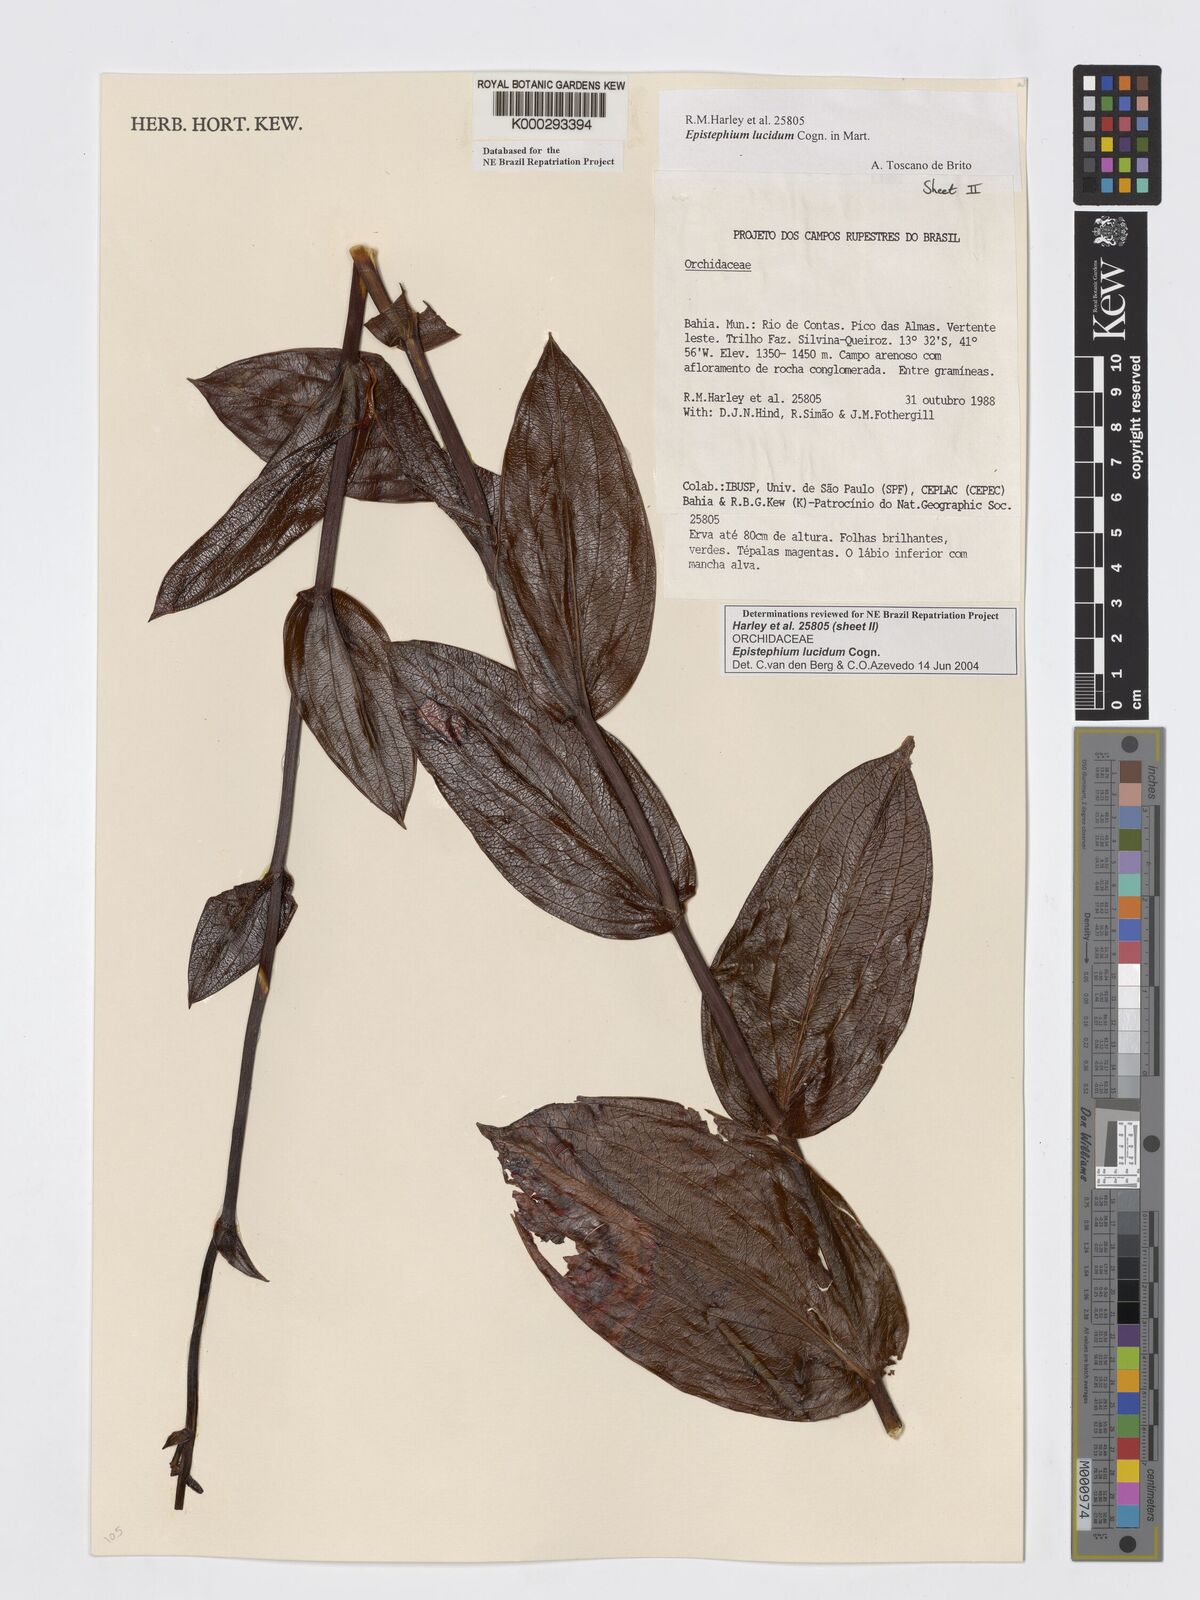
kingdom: Plantae
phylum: Tracheophyta
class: Liliopsida
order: Asparagales
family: Orchidaceae
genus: Epistephium
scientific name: Epistephium williamsii
